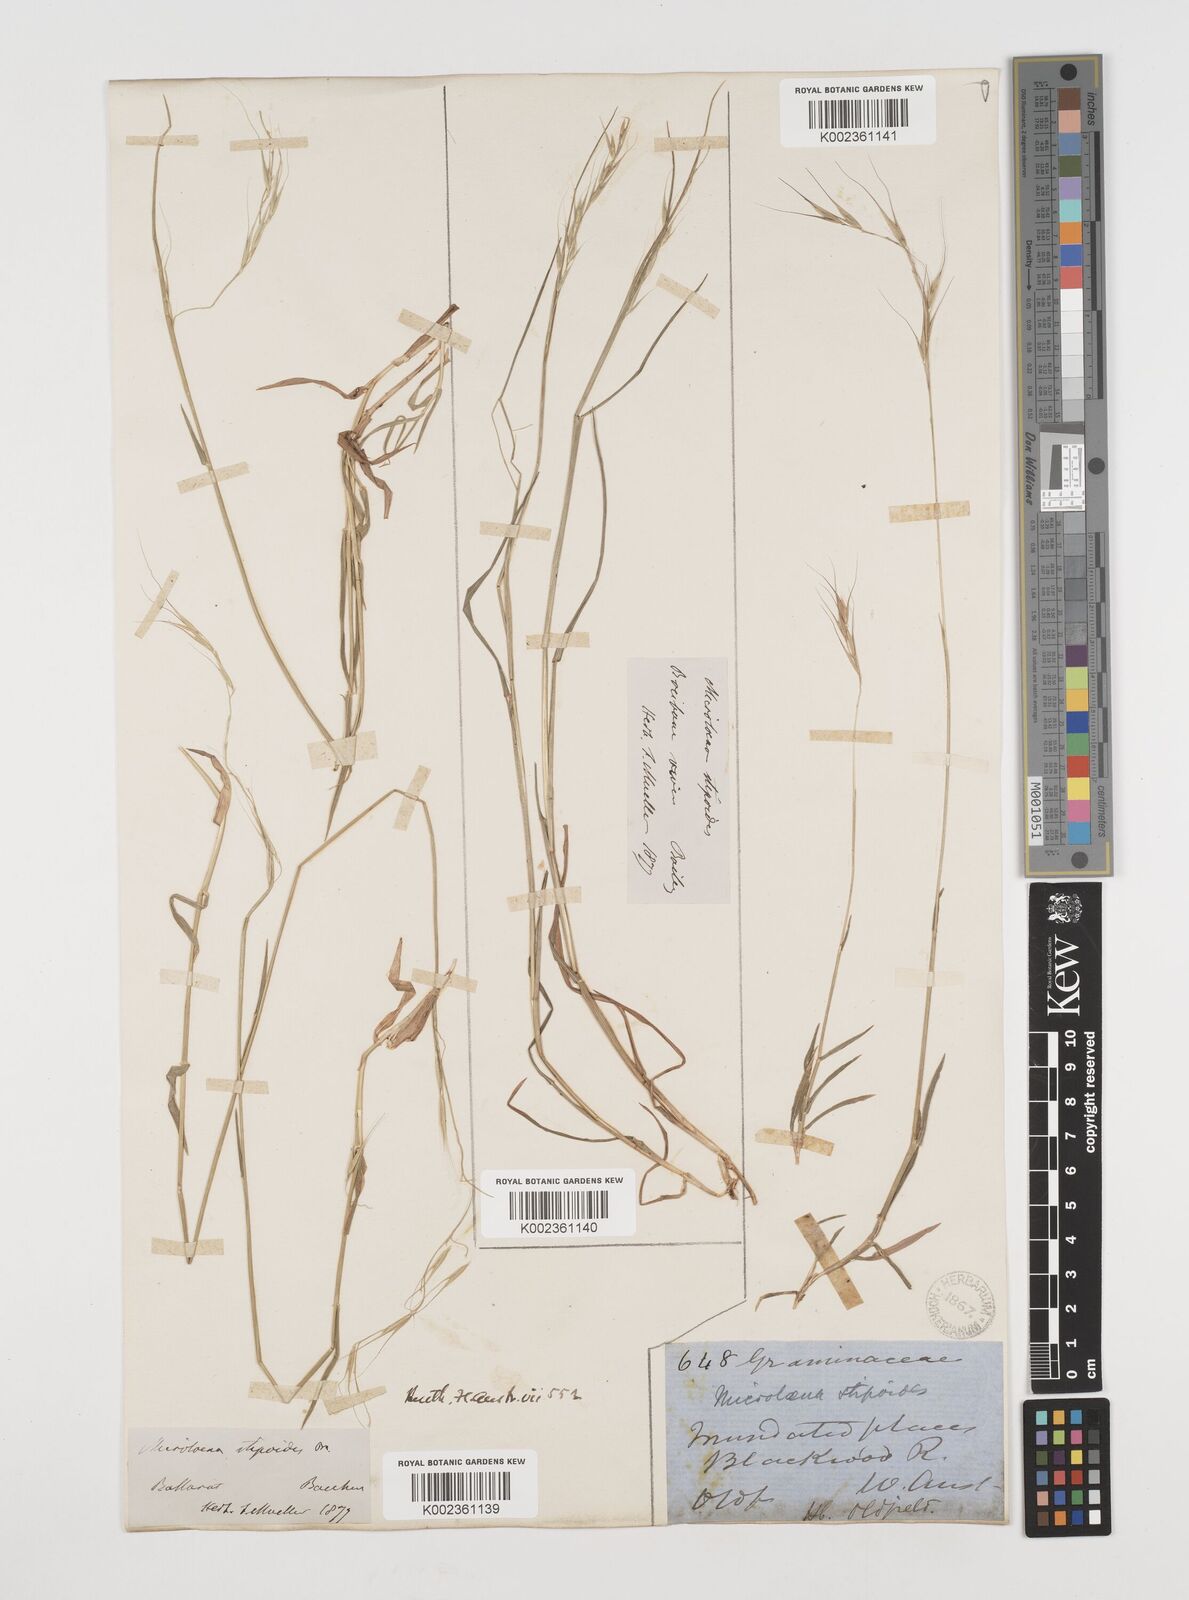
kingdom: Plantae
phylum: Tracheophyta
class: Liliopsida
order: Poales
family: Poaceae
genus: Microlaena
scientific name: Microlaena stipoides
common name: Meadow ricegrass
